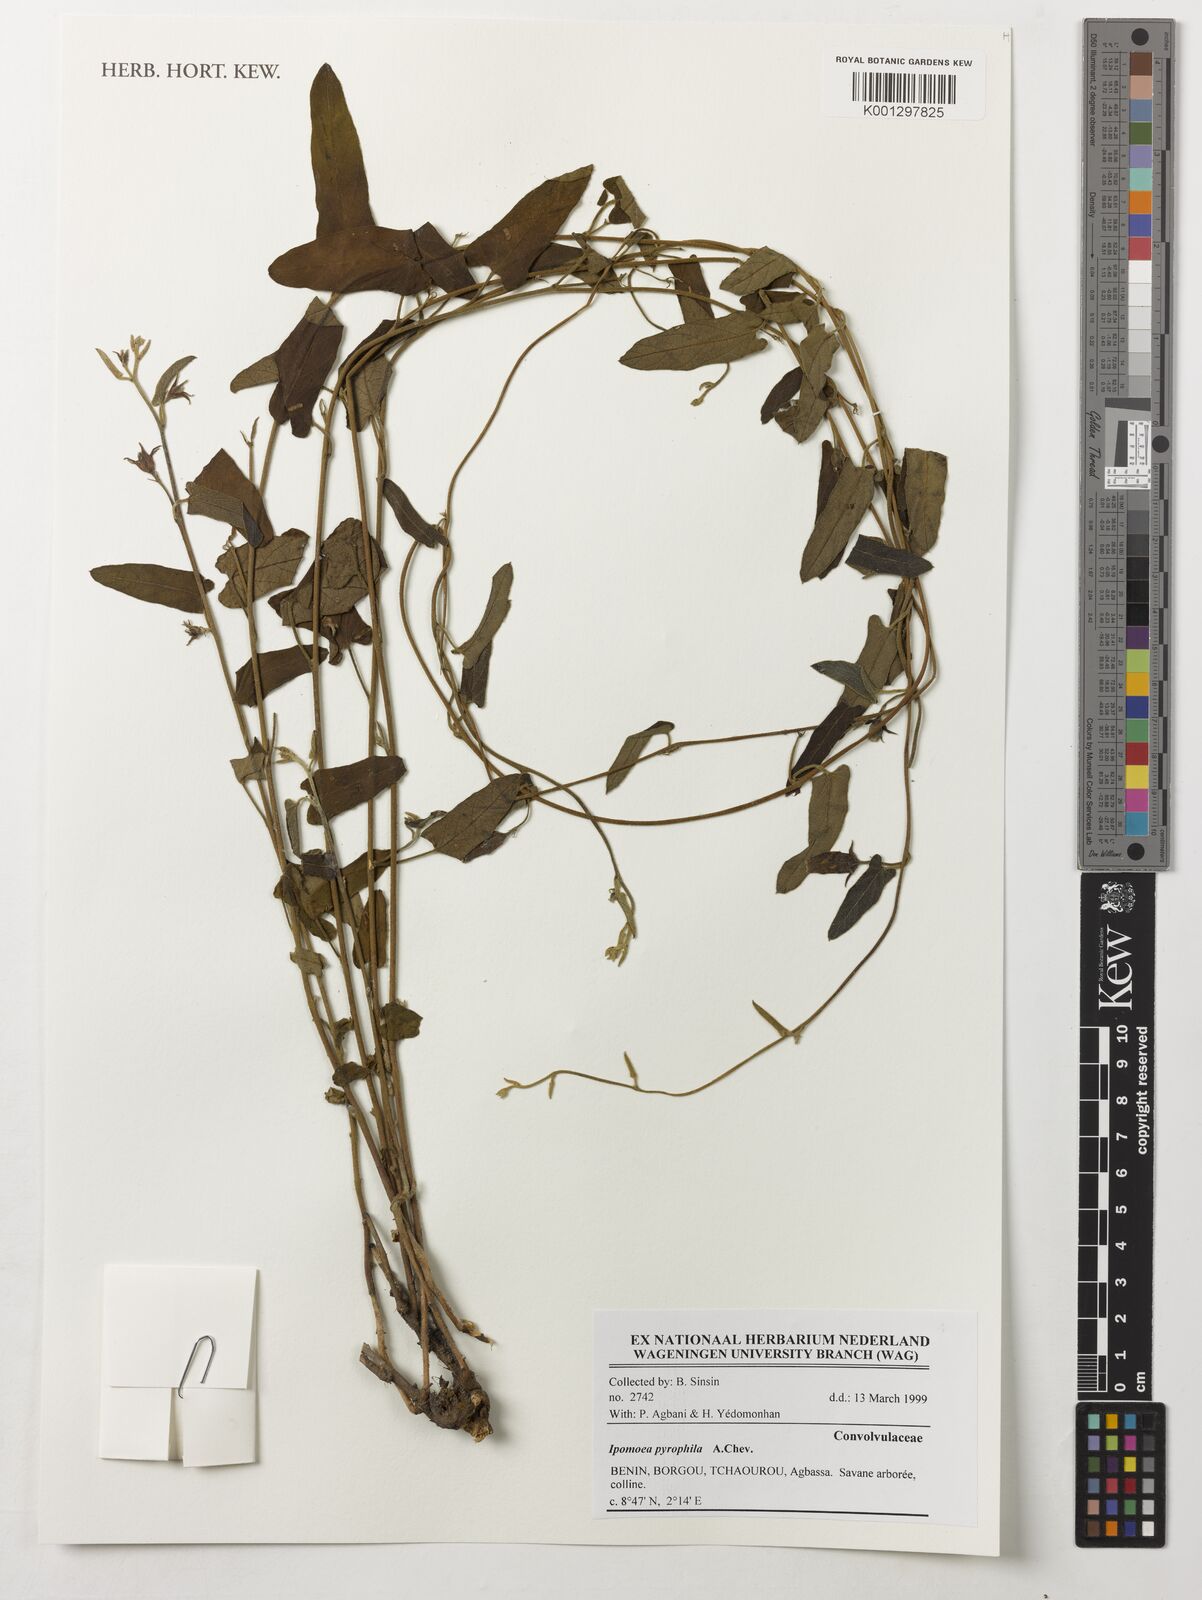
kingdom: Plantae
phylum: Tracheophyta
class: Magnoliopsida
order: Solanales
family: Convolvulaceae
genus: Ipomoea
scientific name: Ipomoea pyrophila
